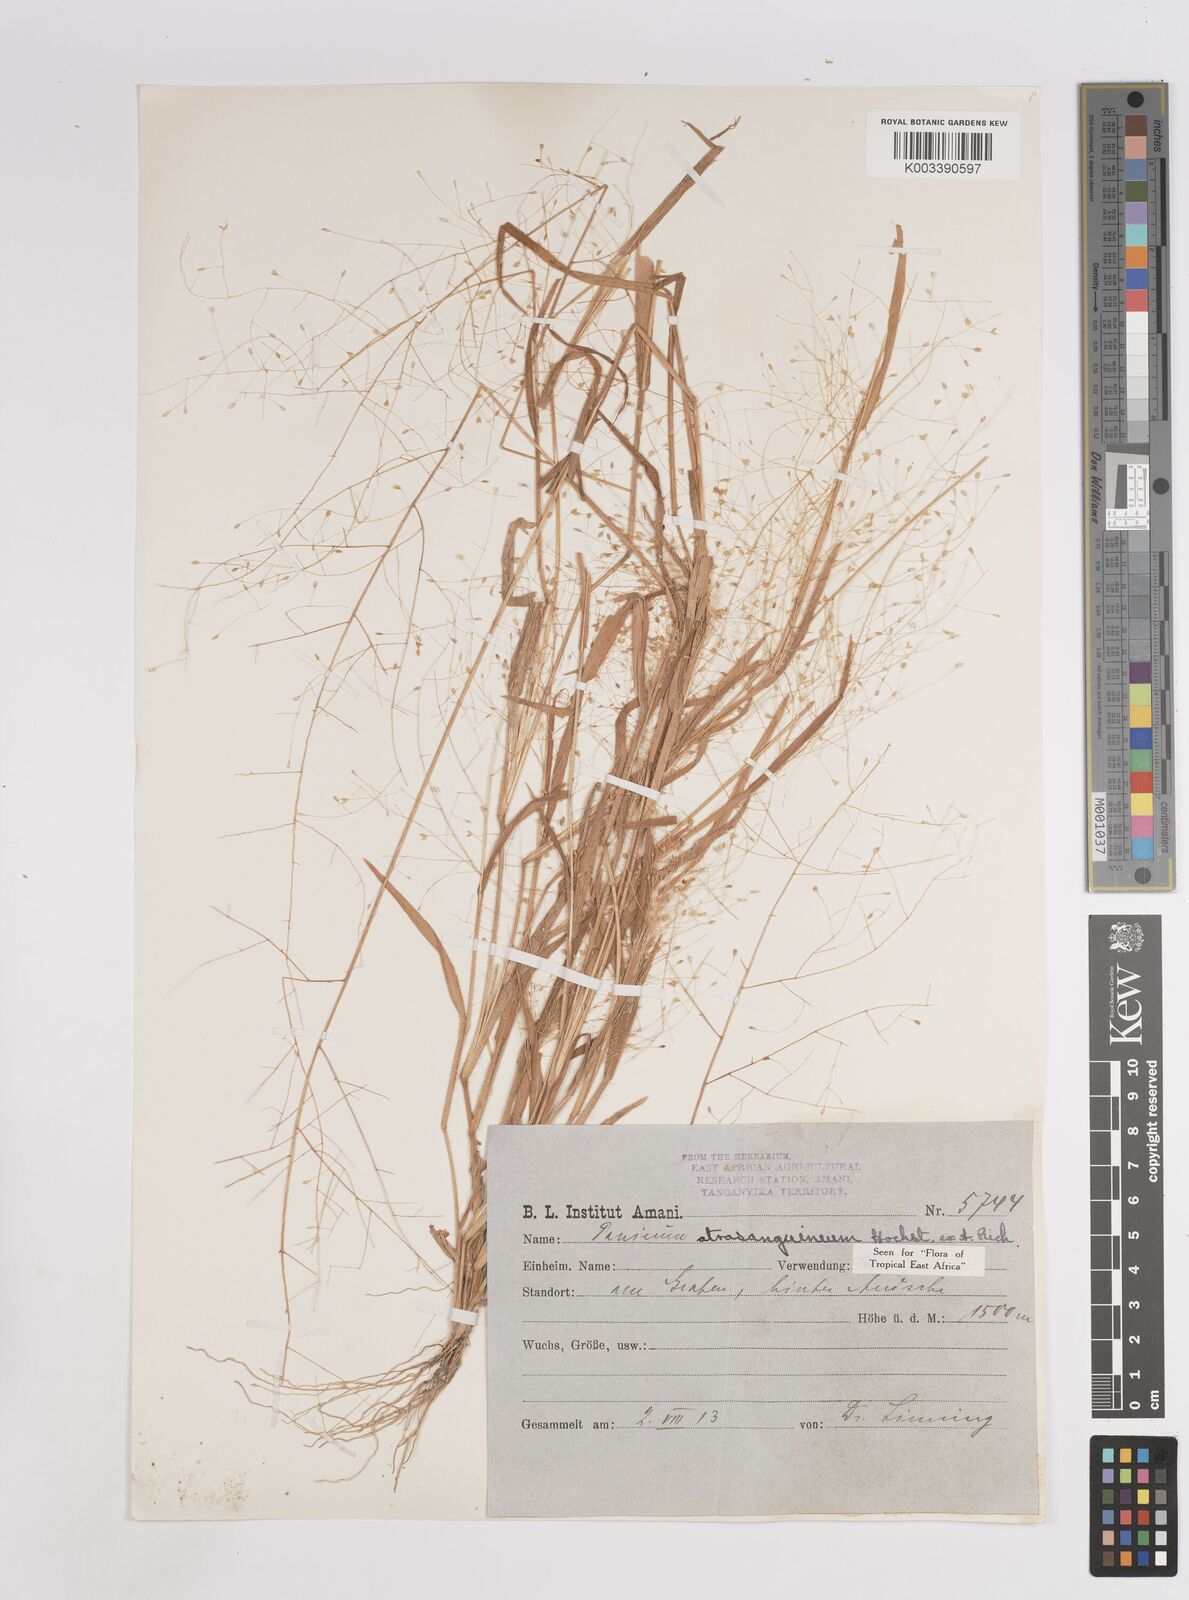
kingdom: Plantae
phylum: Tracheophyta
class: Liliopsida
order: Poales
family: Poaceae
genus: Panicum
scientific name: Panicum atrosanguineum
